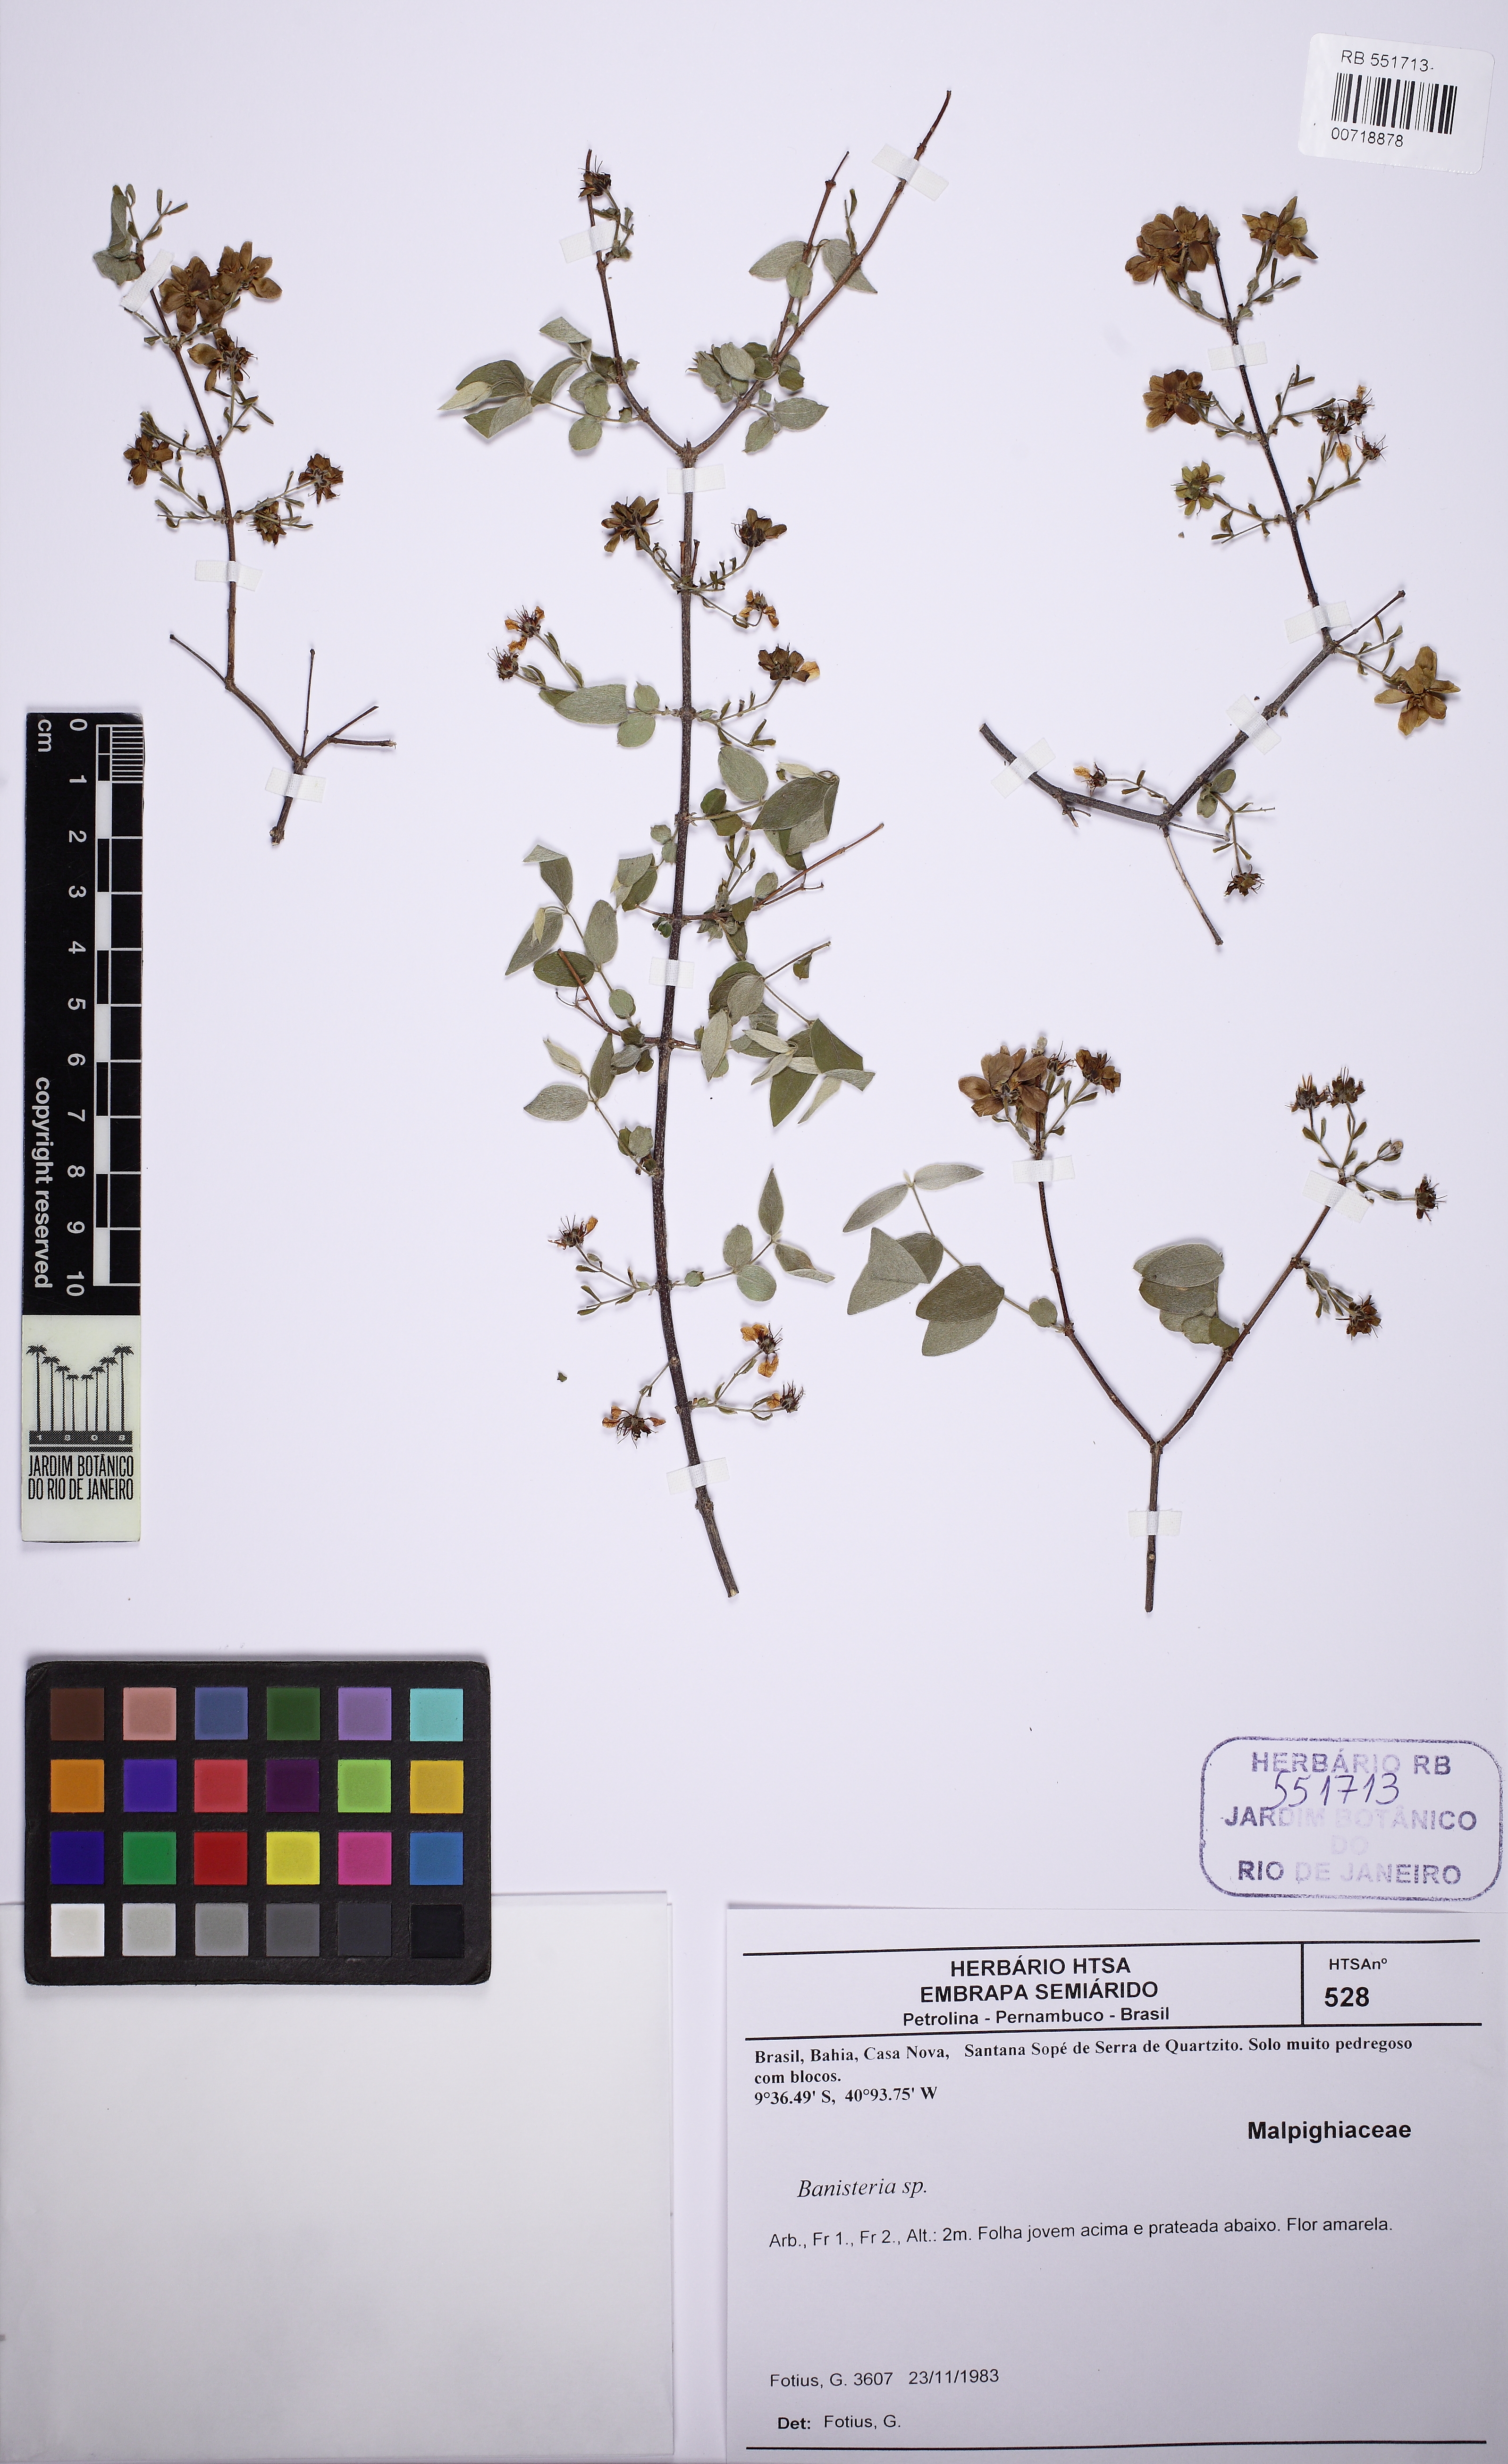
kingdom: Plantae
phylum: Tracheophyta
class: Magnoliopsida
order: Malpighiales
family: Malpighiaceae
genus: Tetrapterys
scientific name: Tetrapterys
